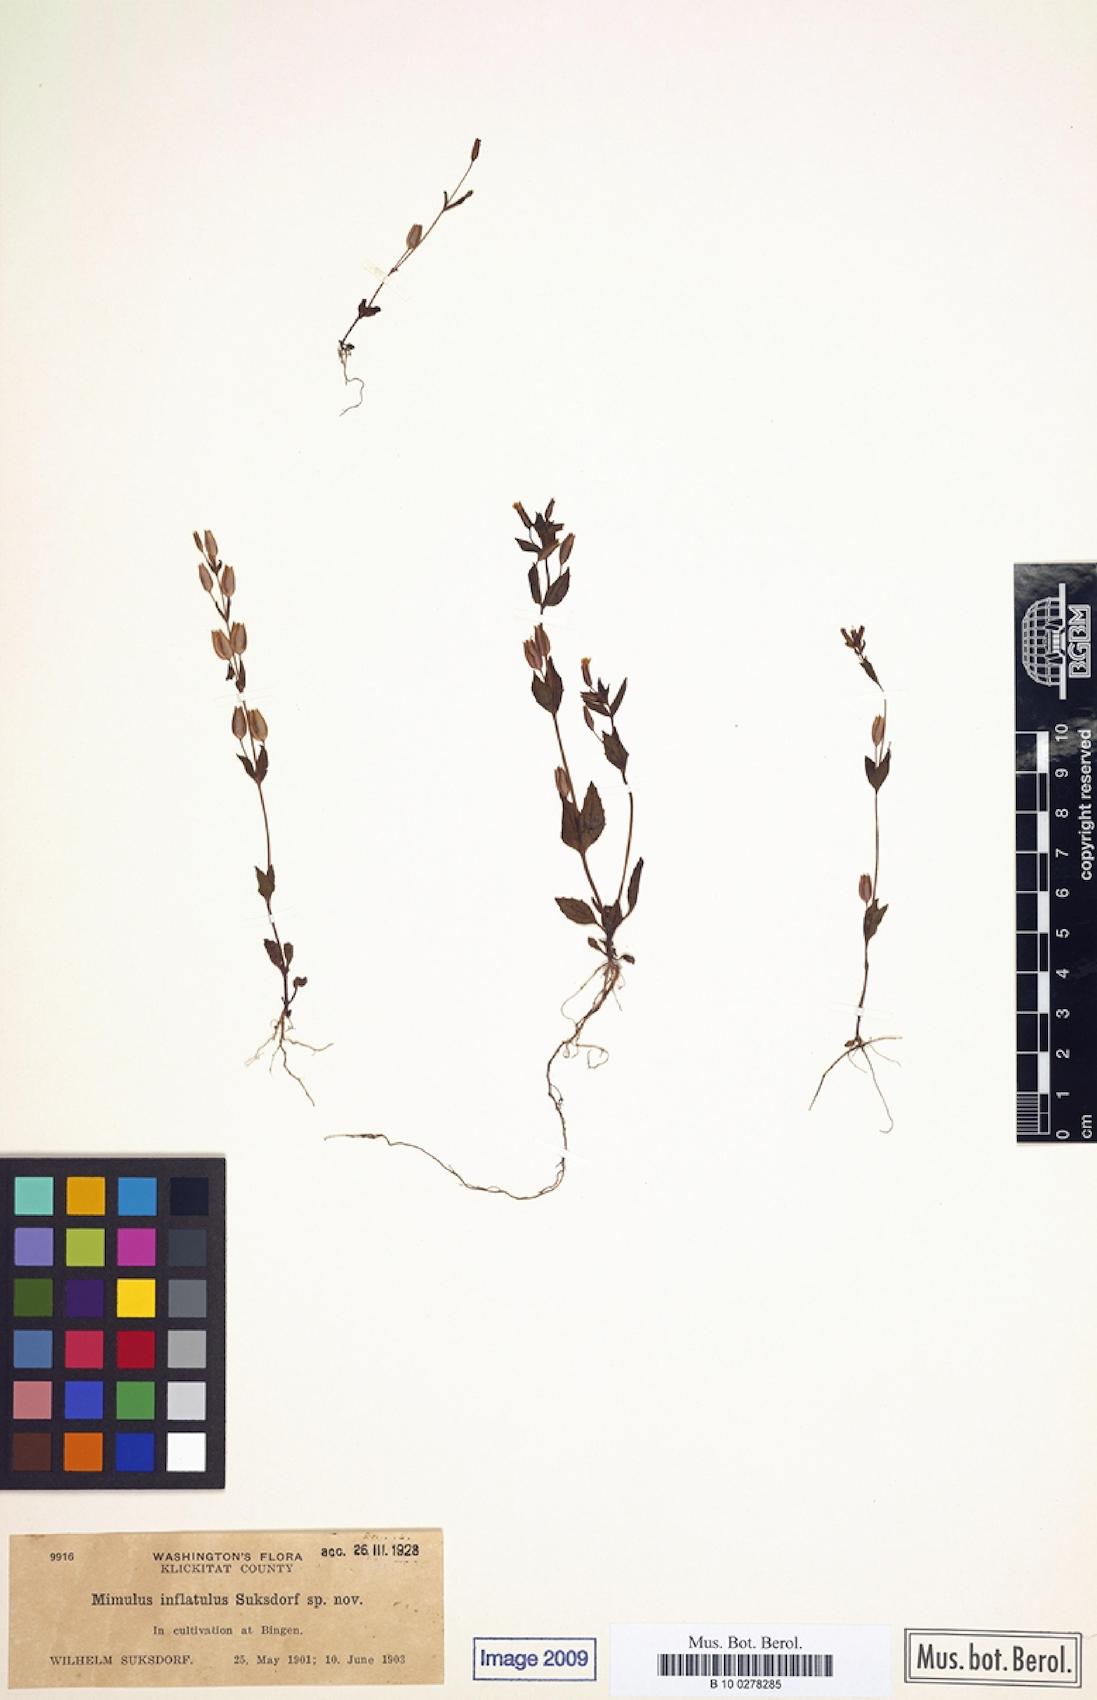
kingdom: Plantae
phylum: Tracheophyta
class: Magnoliopsida
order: Lamiales
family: Phrymaceae
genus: Erythranthe
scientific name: Erythranthe breviflora
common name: Short-flowered monkeyflower
